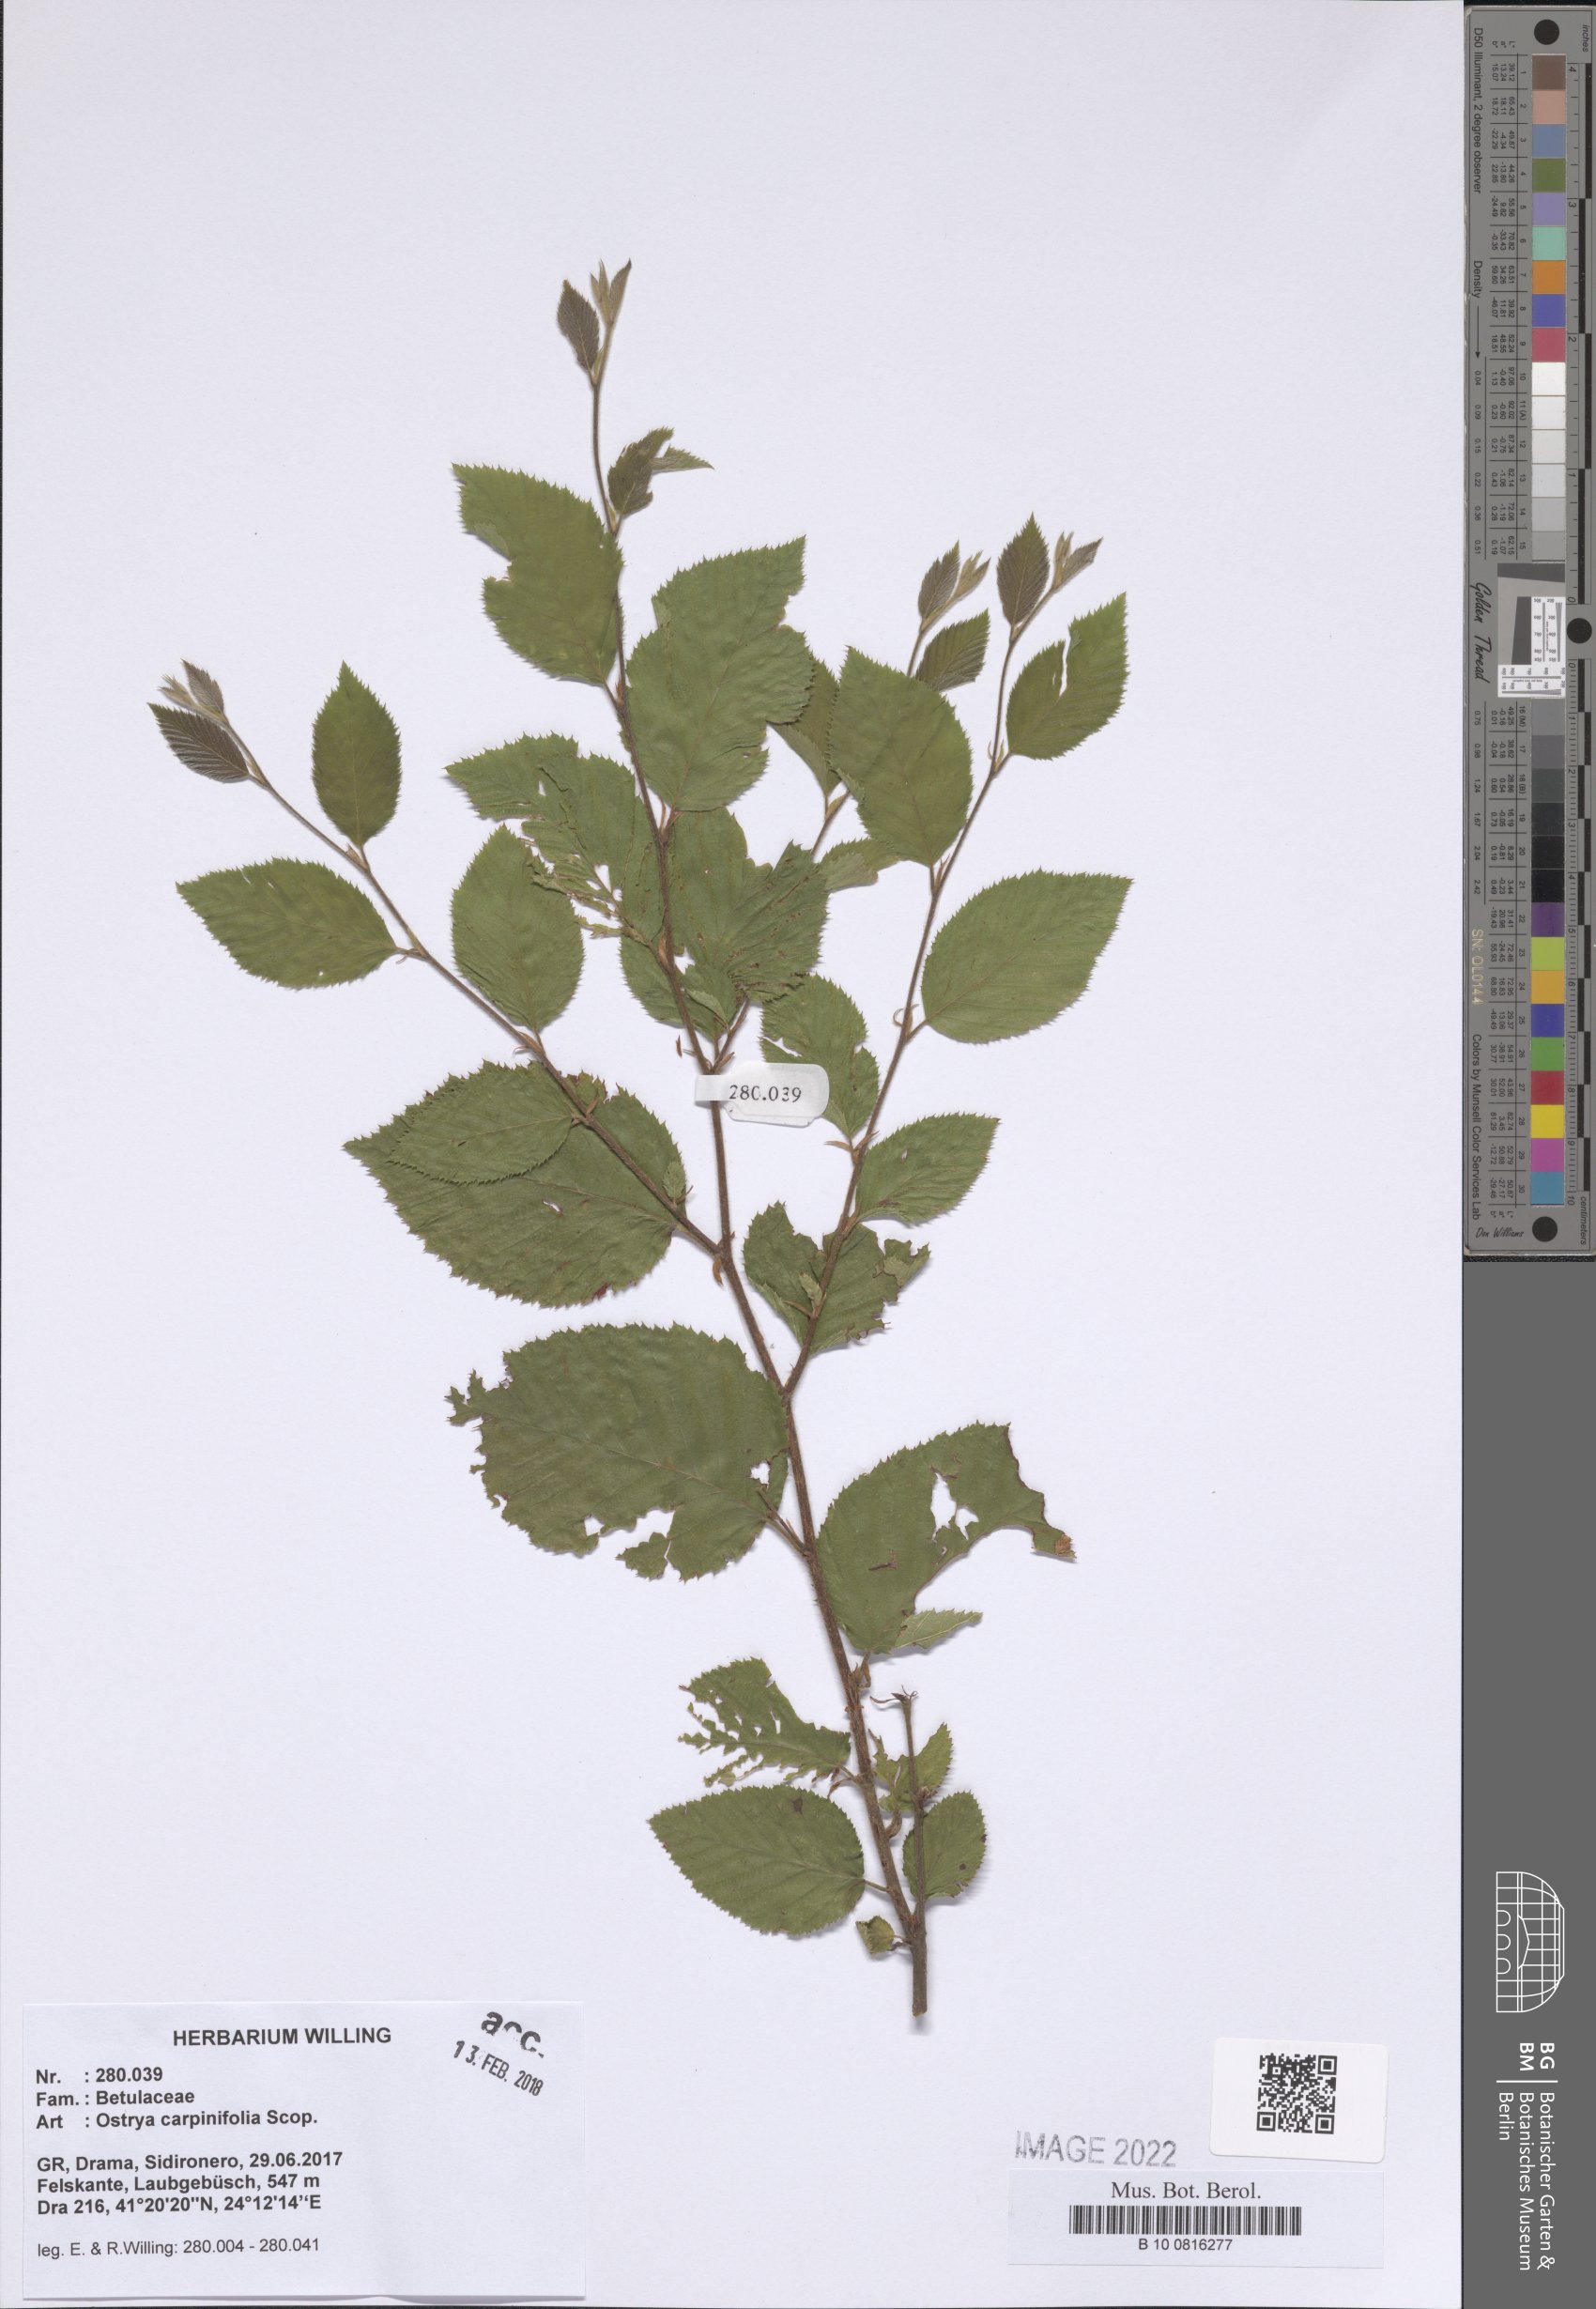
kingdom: Plantae
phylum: Tracheophyta
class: Magnoliopsida
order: Fagales
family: Betulaceae
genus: Ostrya
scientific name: Ostrya carpinifolia
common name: European hop-hornbeam
